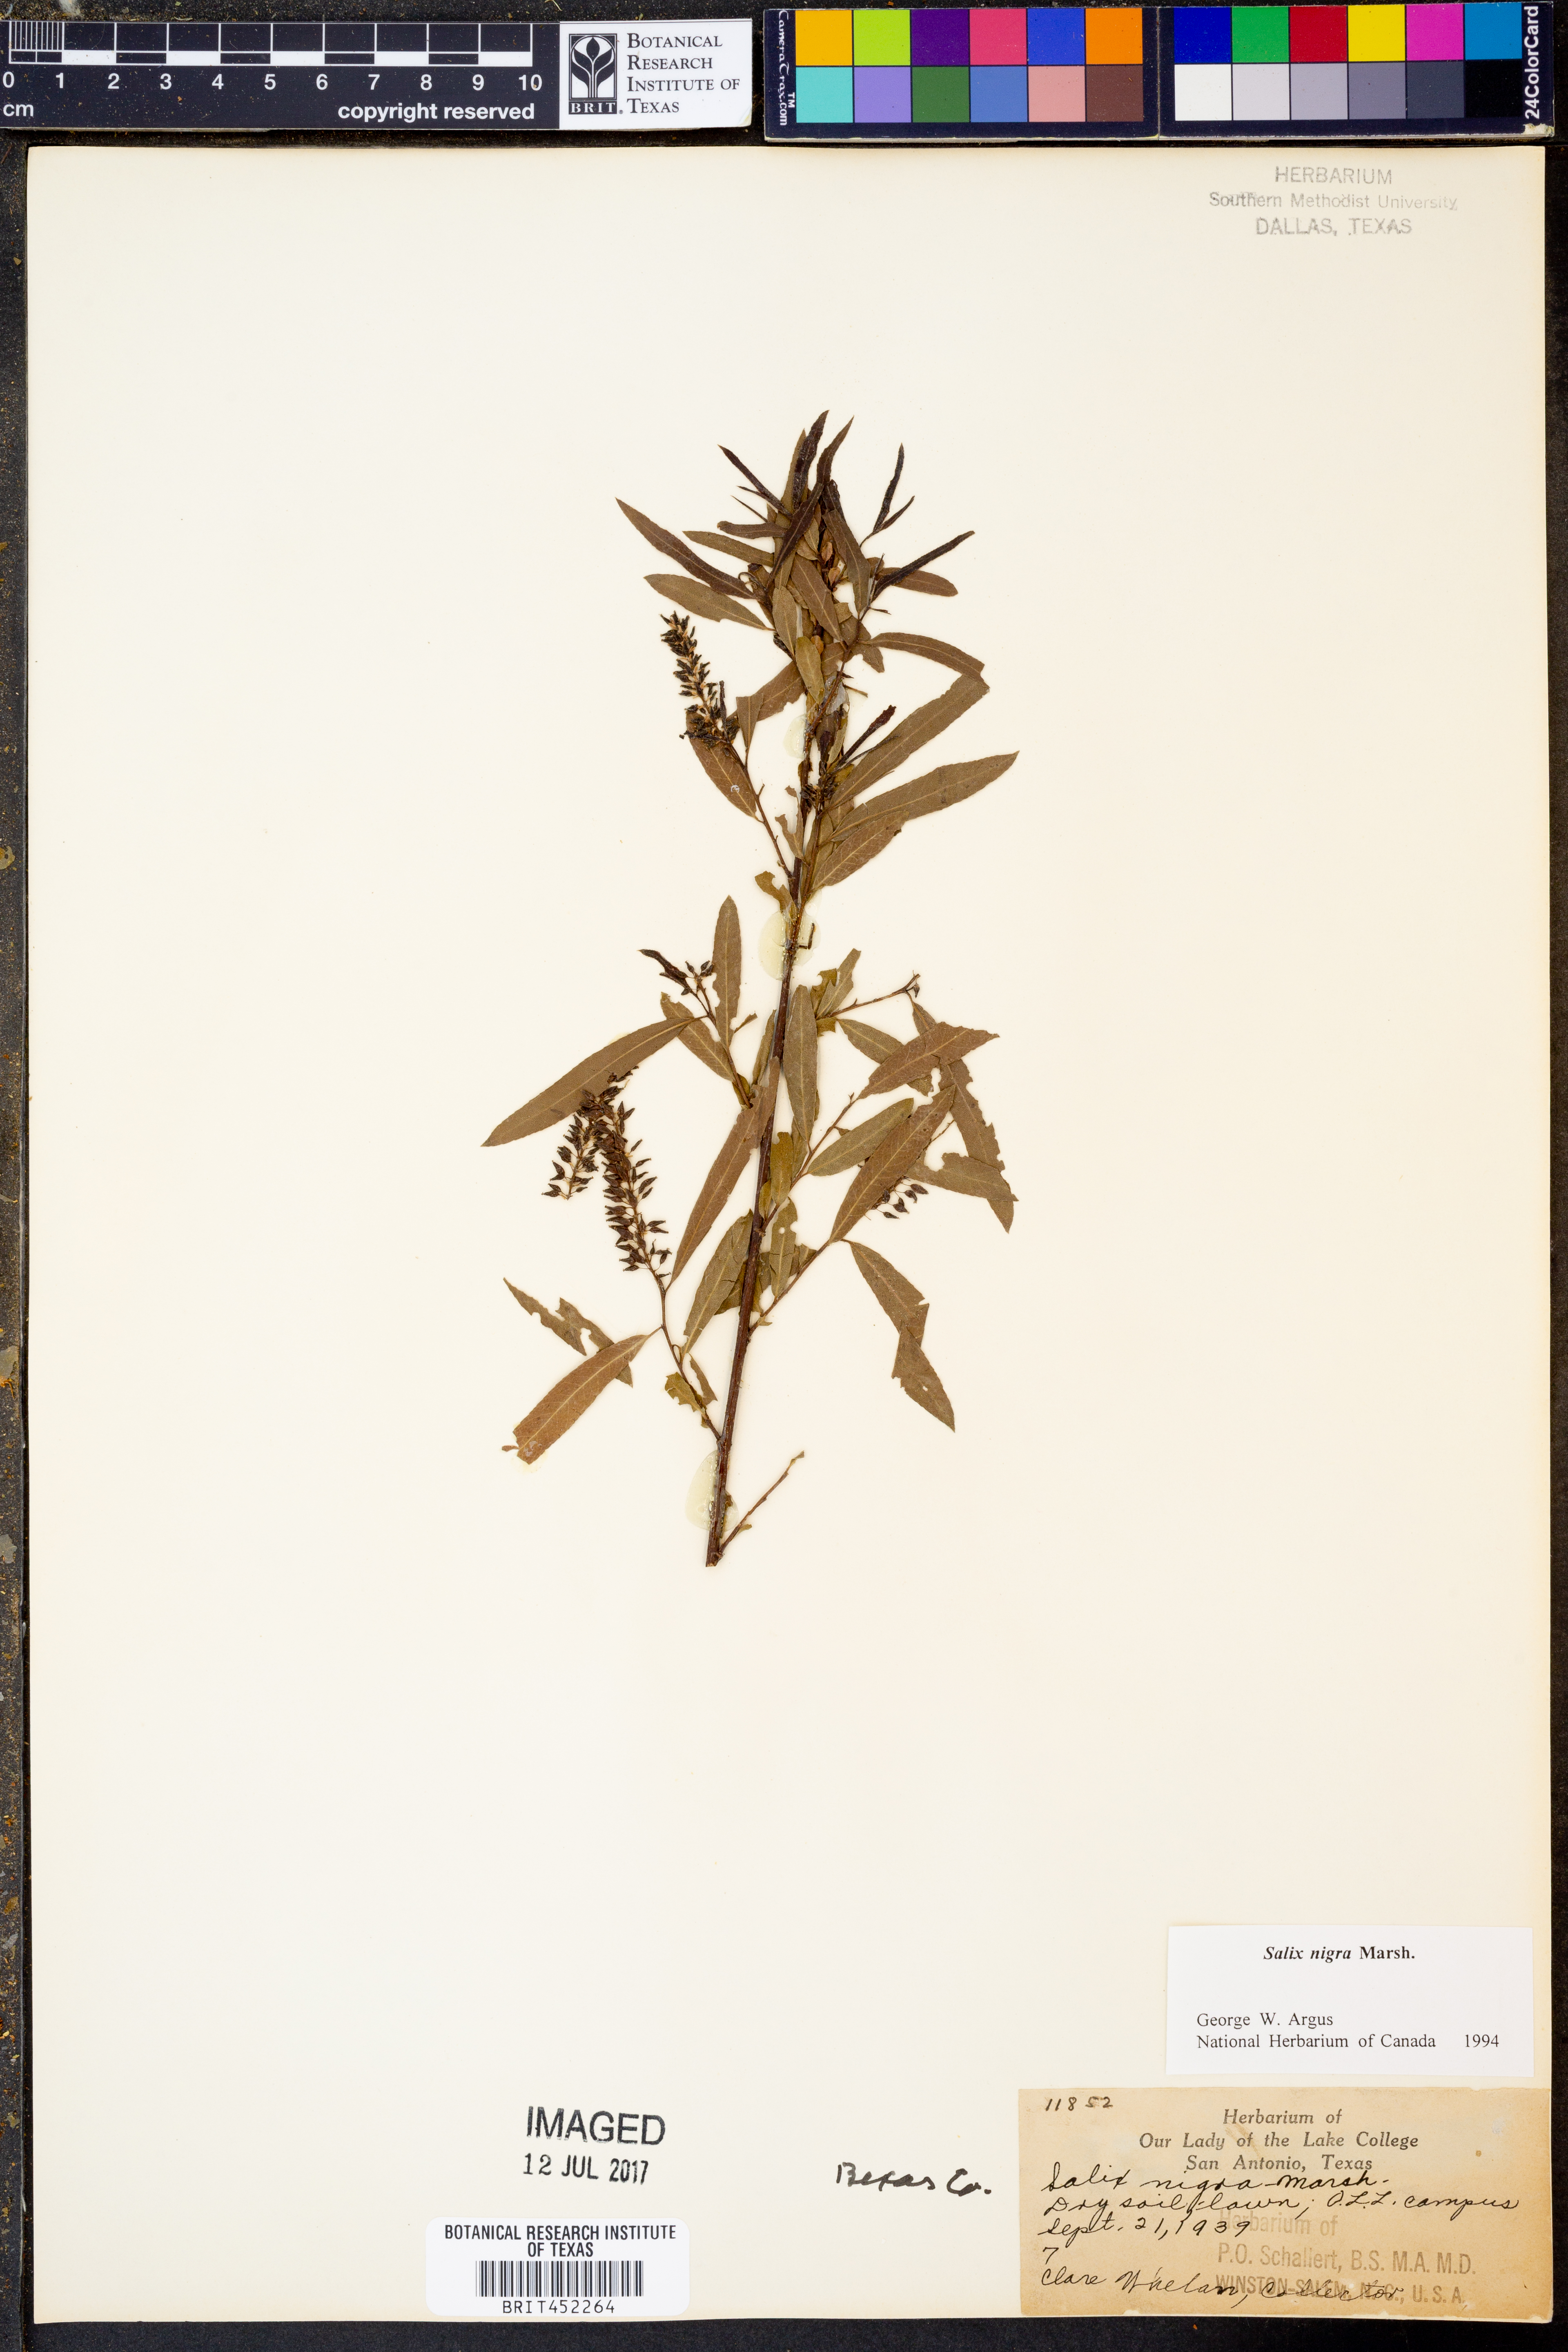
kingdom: Plantae
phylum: Tracheophyta
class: Magnoliopsida
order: Malpighiales
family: Salicaceae
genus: Salix
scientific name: Salix nigra
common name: Black willow
